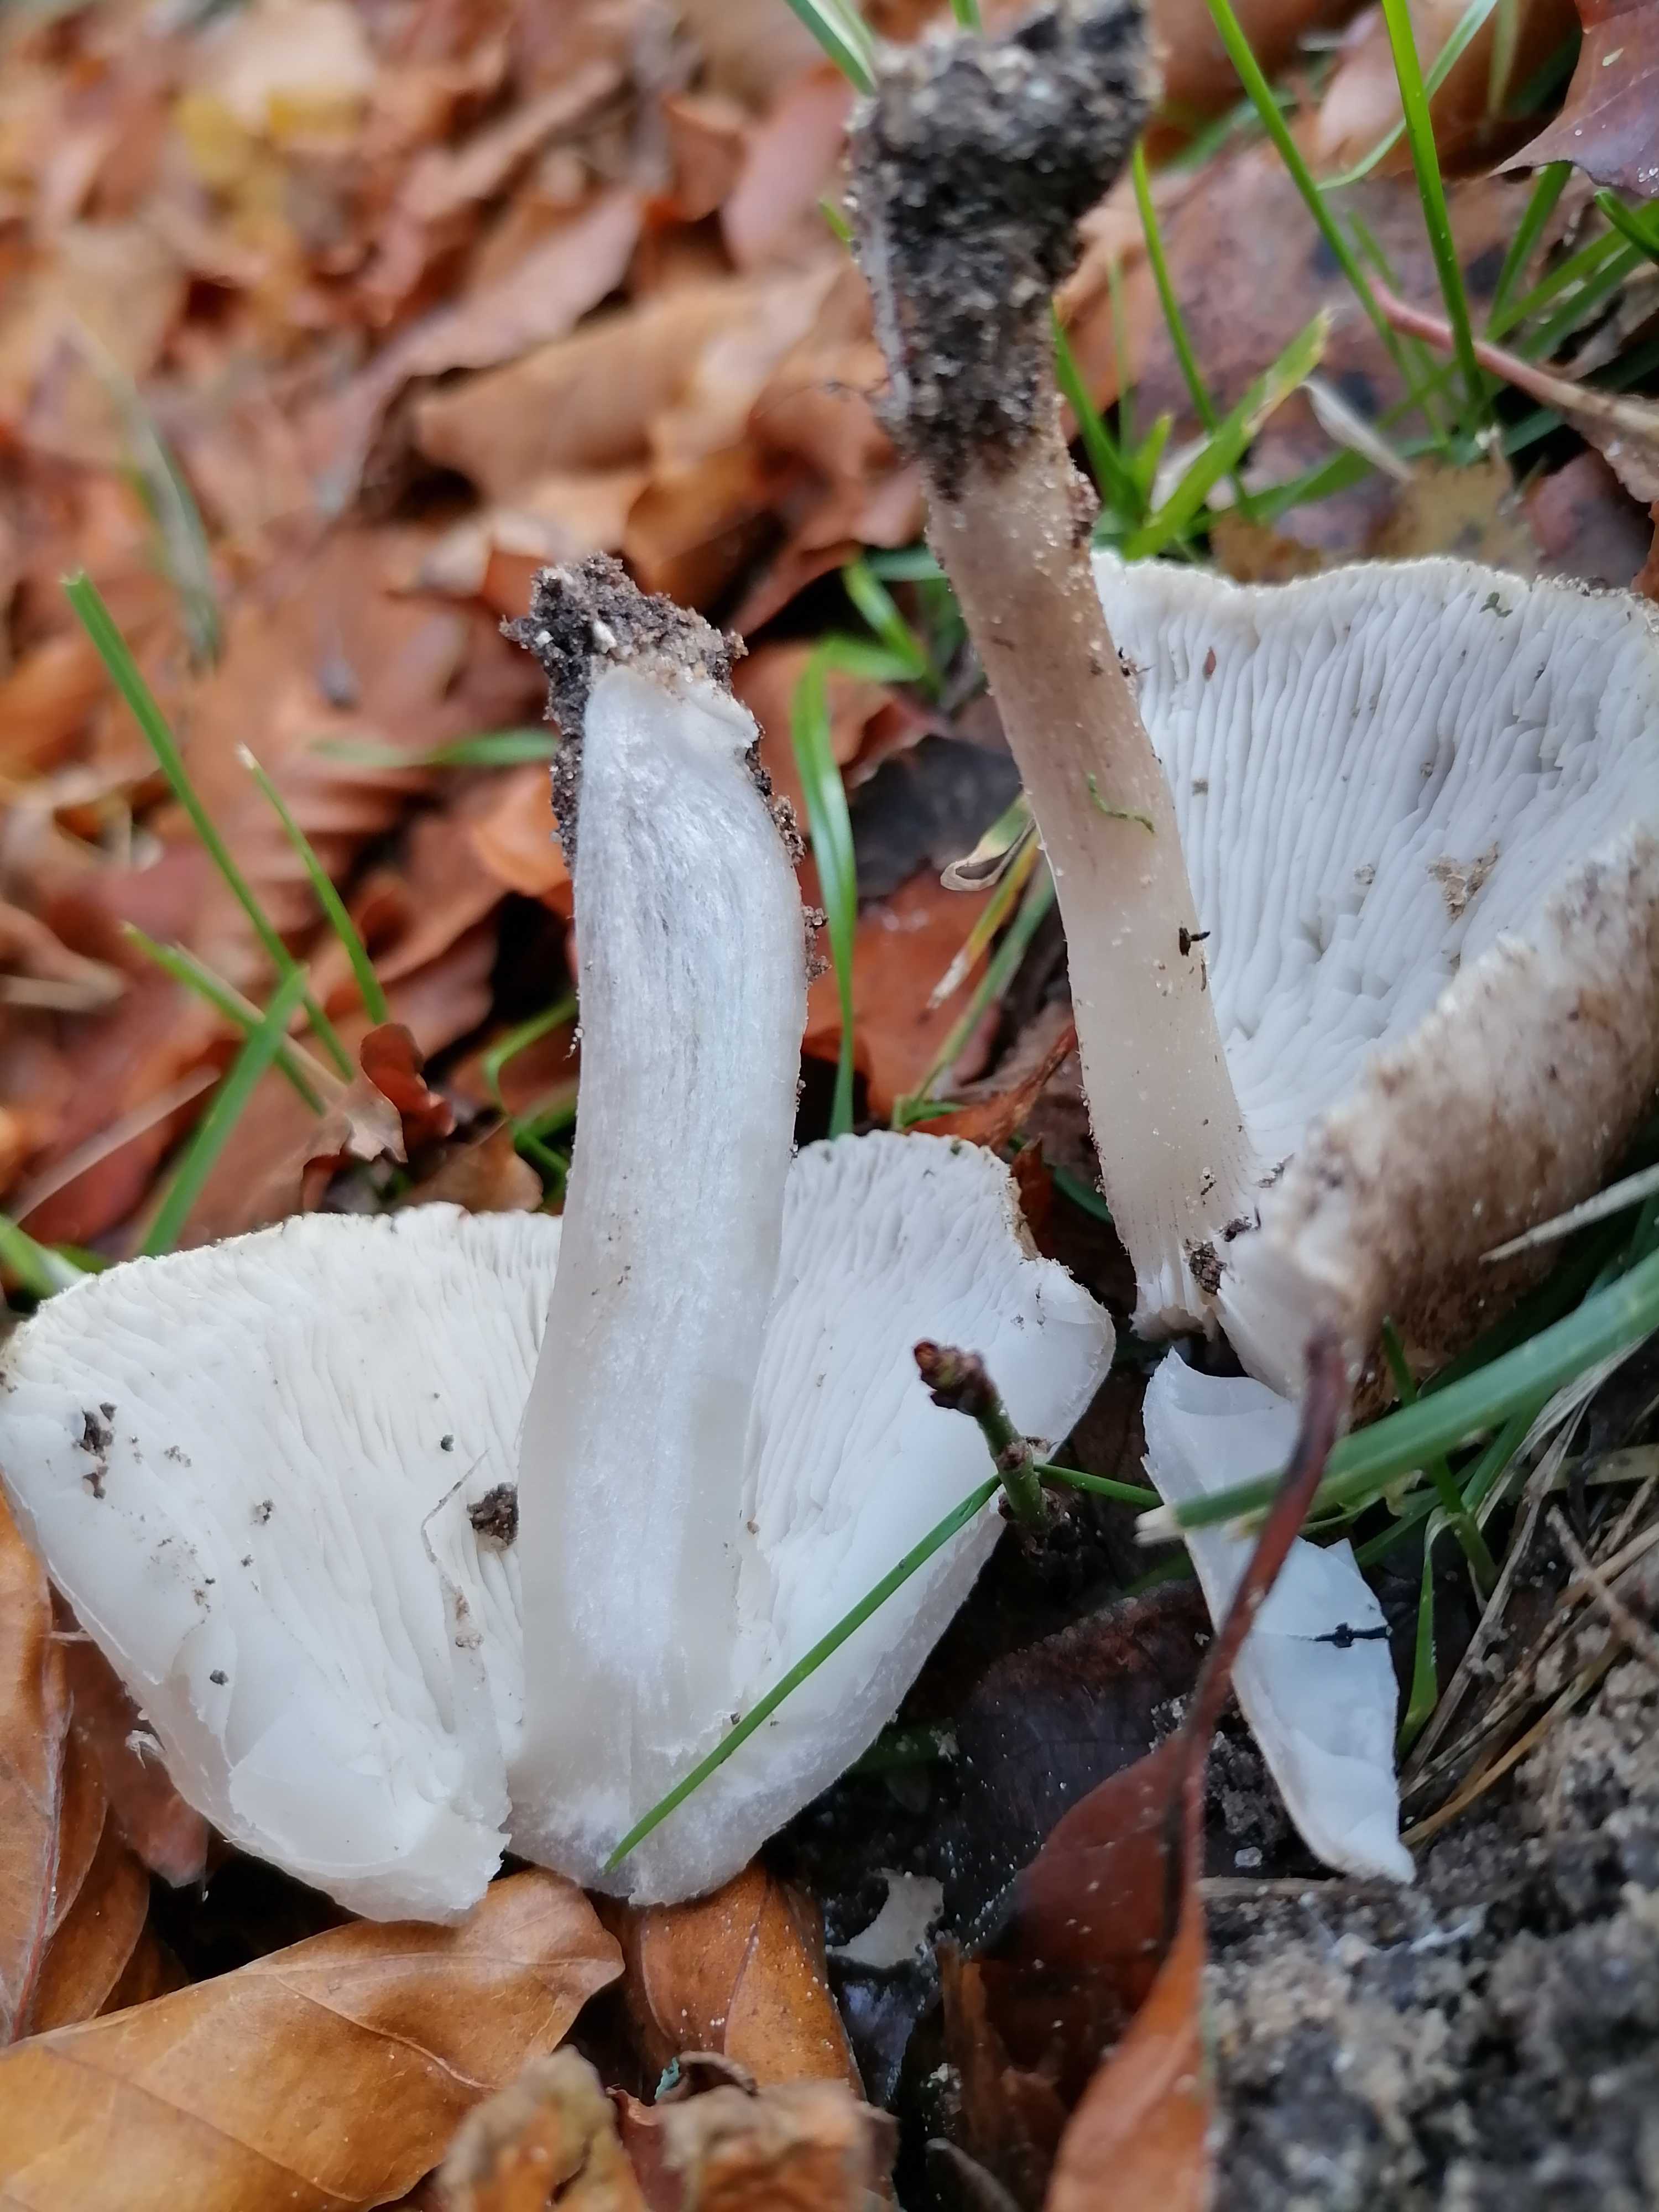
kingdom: Fungi
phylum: Basidiomycota
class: Agaricomycetes
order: Agaricales
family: Tricholomataceae
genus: Tricholoma
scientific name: Tricholoma
